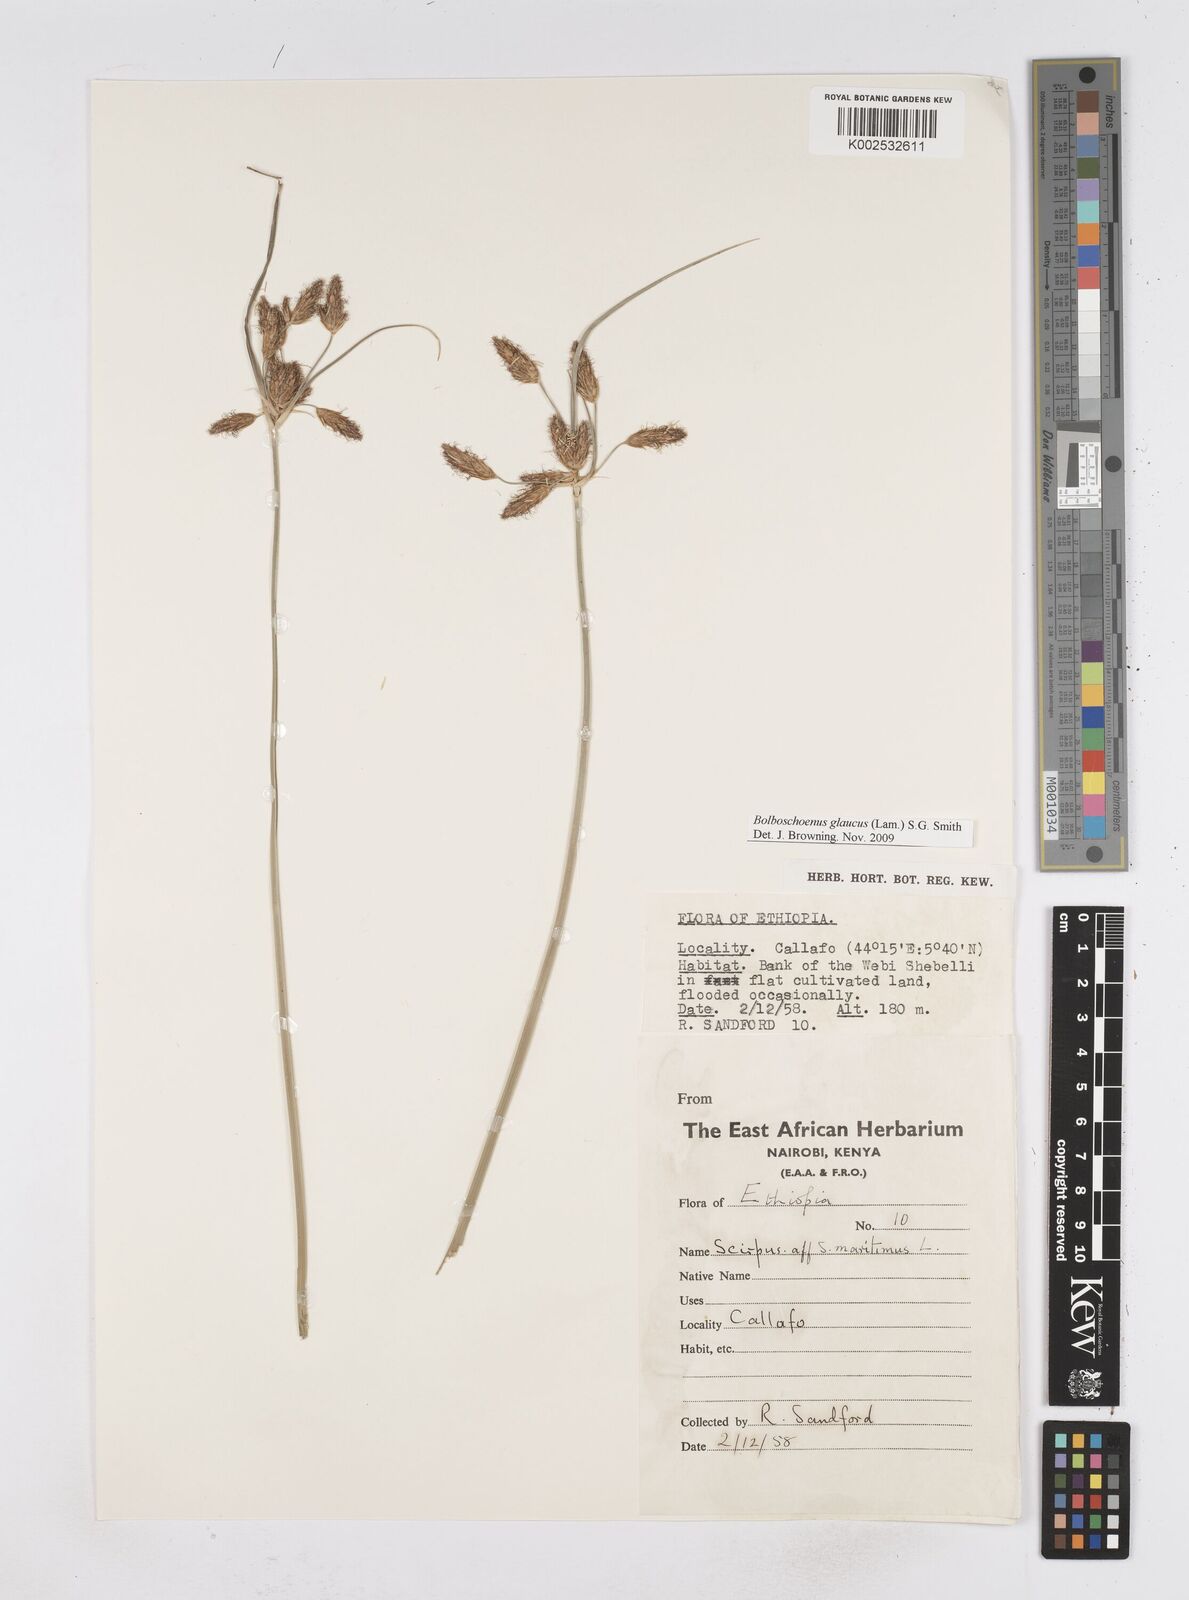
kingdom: Plantae
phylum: Tracheophyta
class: Liliopsida
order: Poales
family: Cyperaceae
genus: Bolboschoenus
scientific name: Bolboschoenus glaucus
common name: Tuberous bulrush
